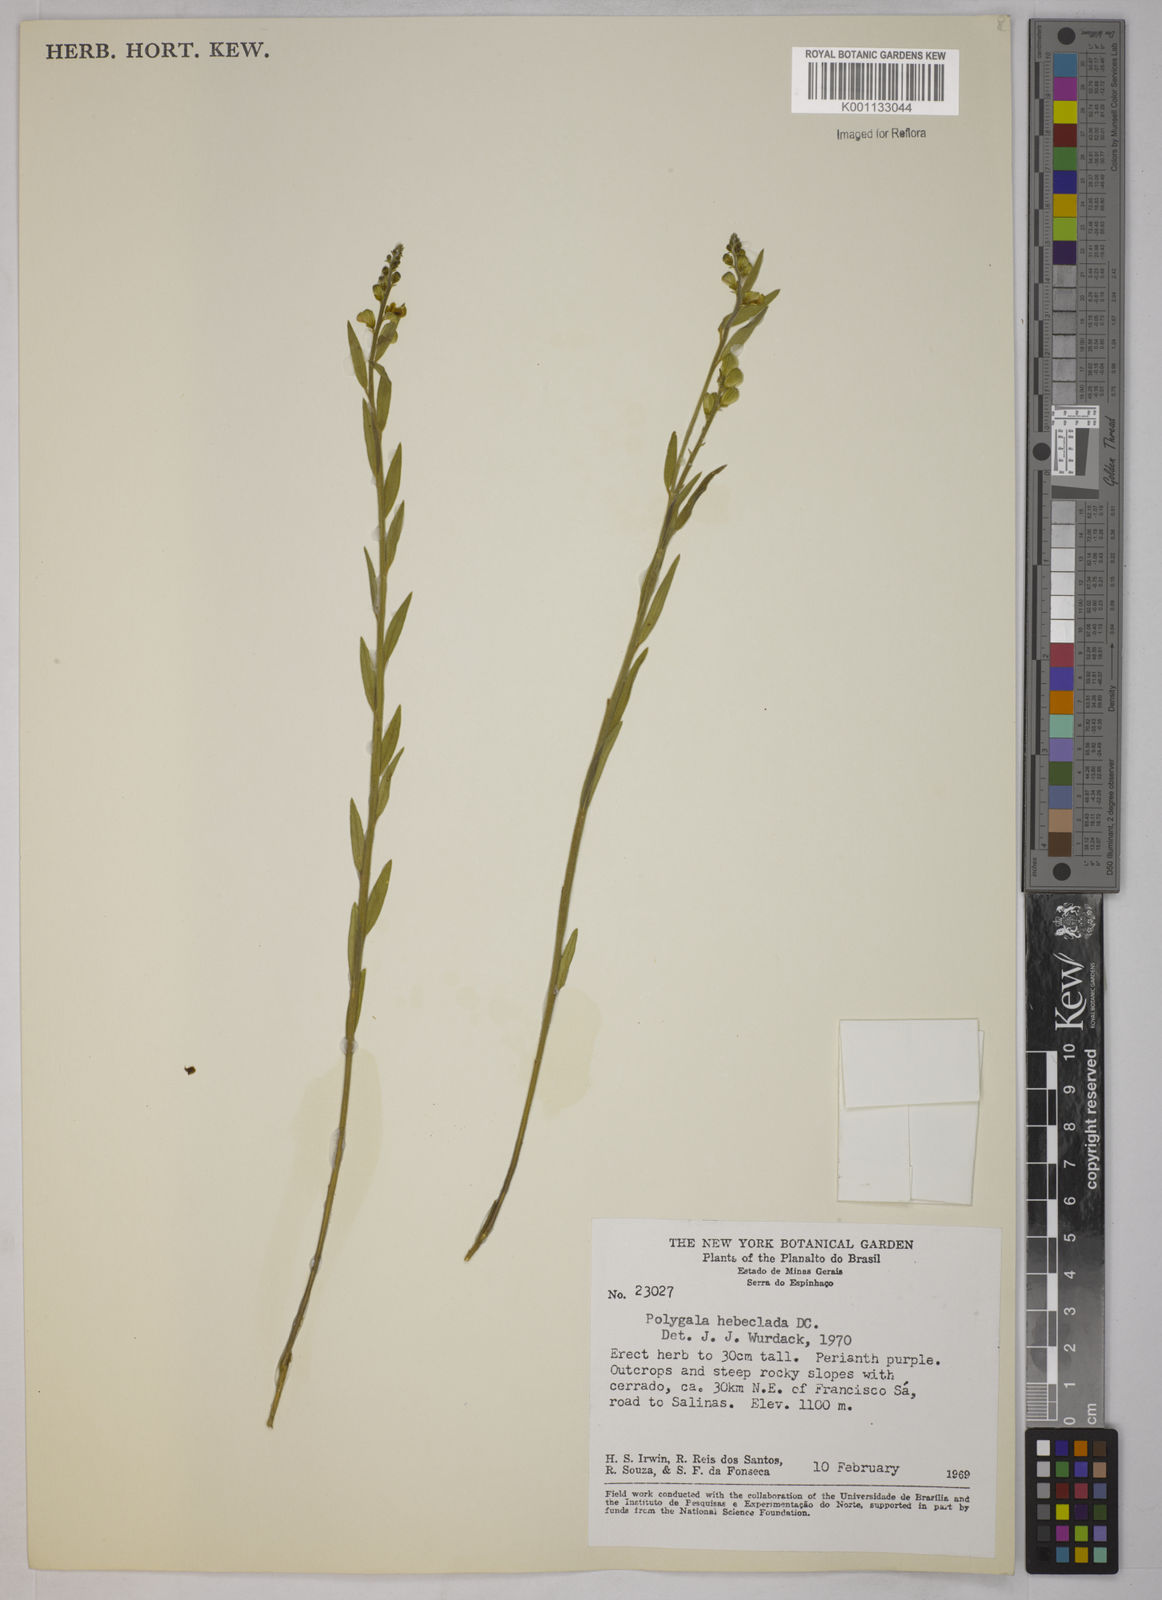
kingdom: Plantae
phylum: Tracheophyta
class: Magnoliopsida
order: Fabales
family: Polygalaceae
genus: Asemeia
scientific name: Asemeia hebeclada
